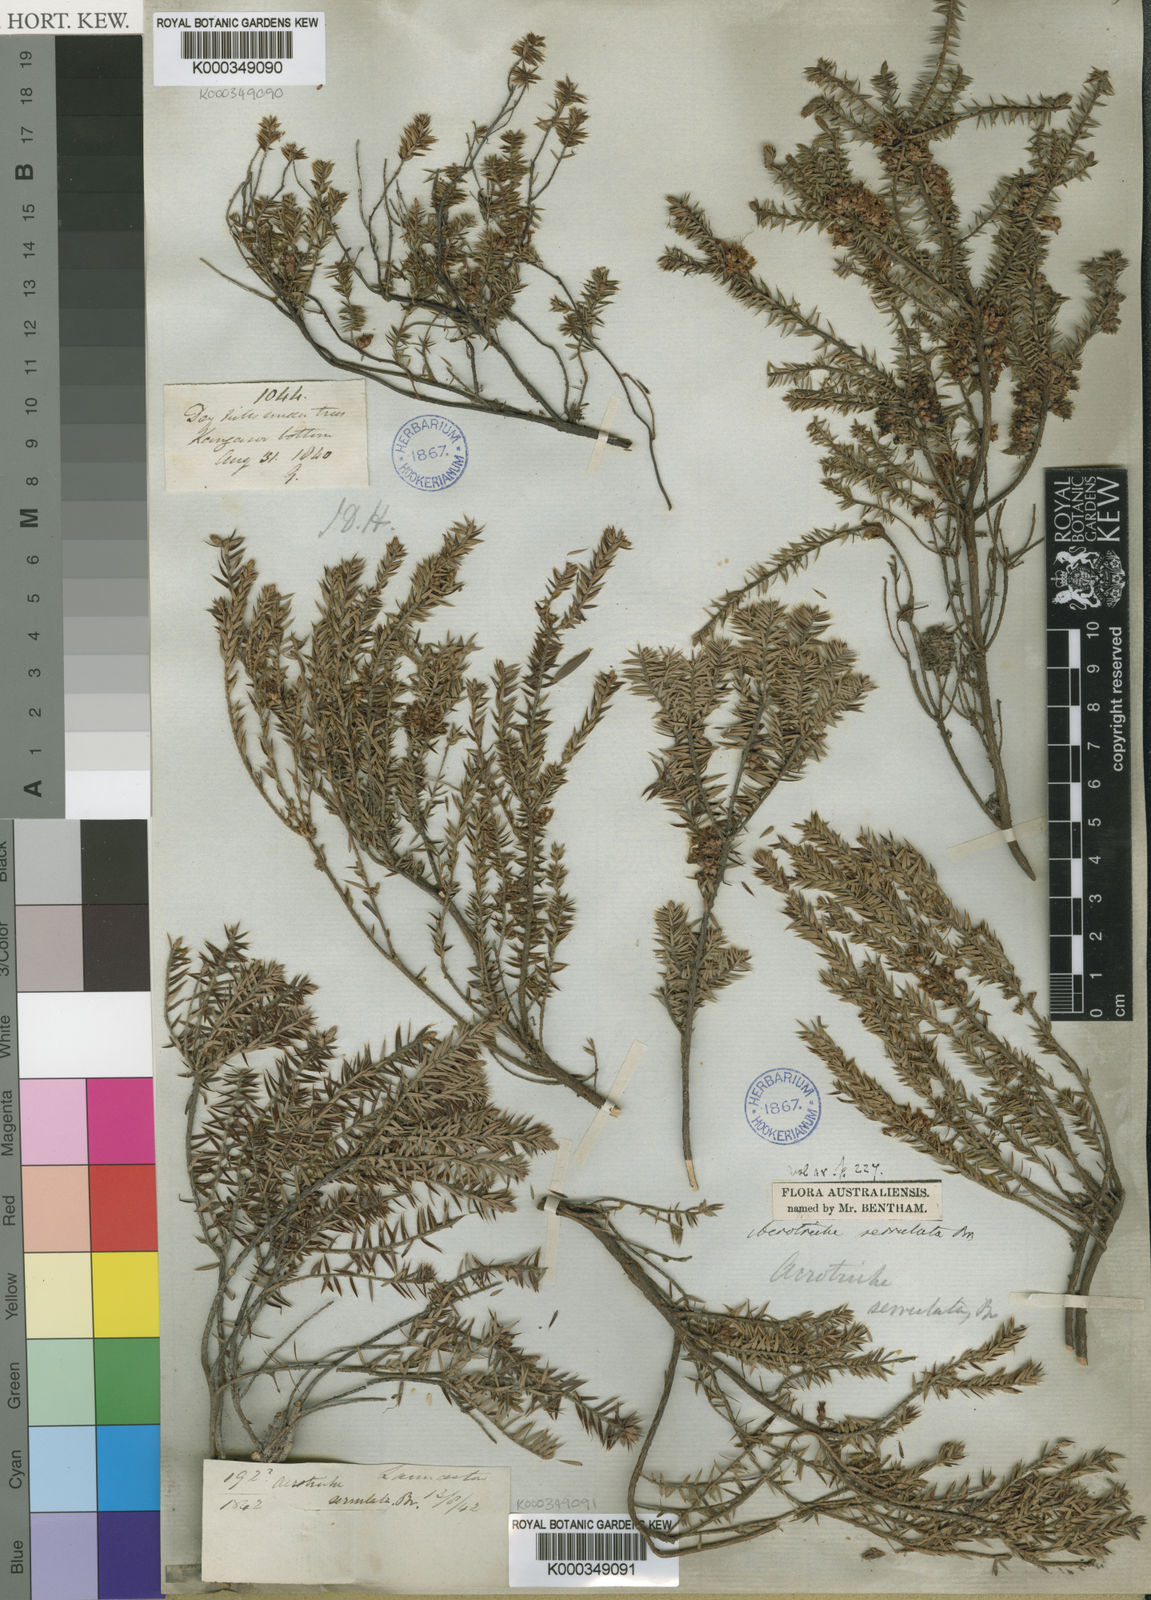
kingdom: Plantae
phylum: Tracheophyta
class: Magnoliopsida
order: Ericales
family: Ericaceae
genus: Acrotriche
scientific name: Acrotriche serrulata
